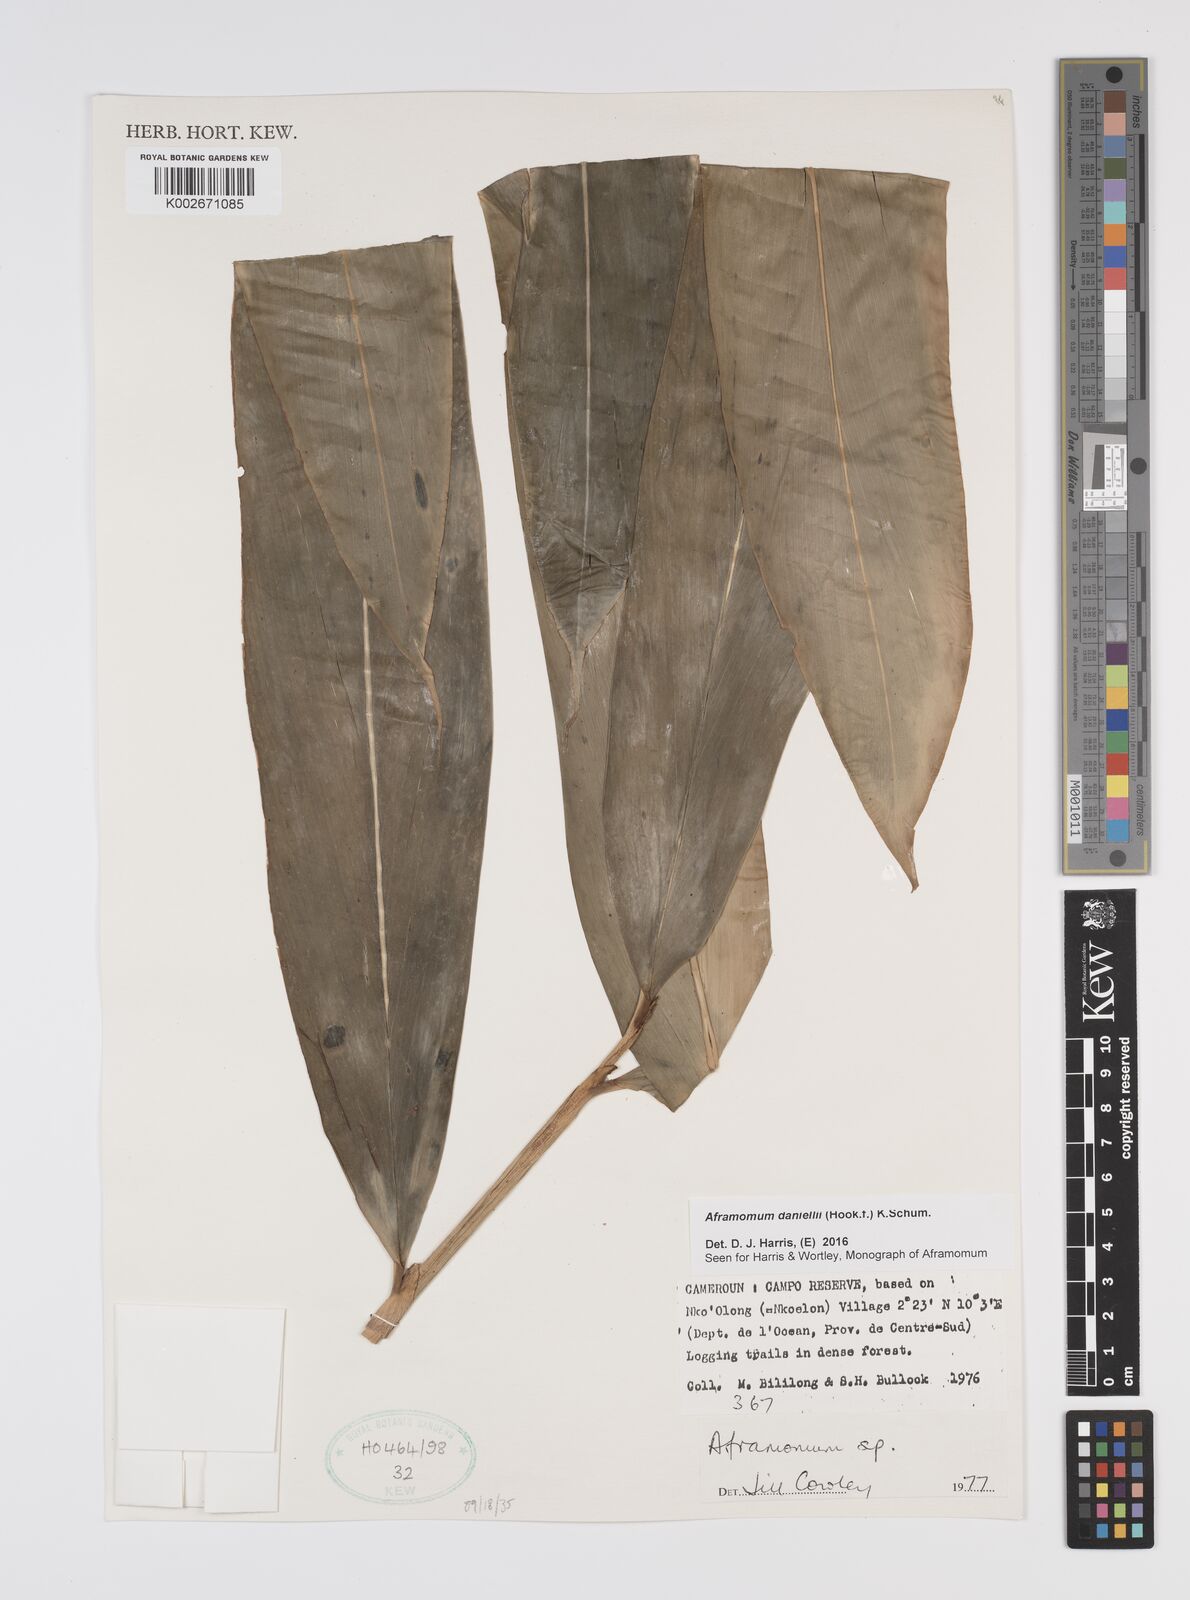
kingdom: Plantae
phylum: Tracheophyta
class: Liliopsida
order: Zingiberales
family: Zingiberaceae
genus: Aframomum
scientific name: Aframomum daniellii
